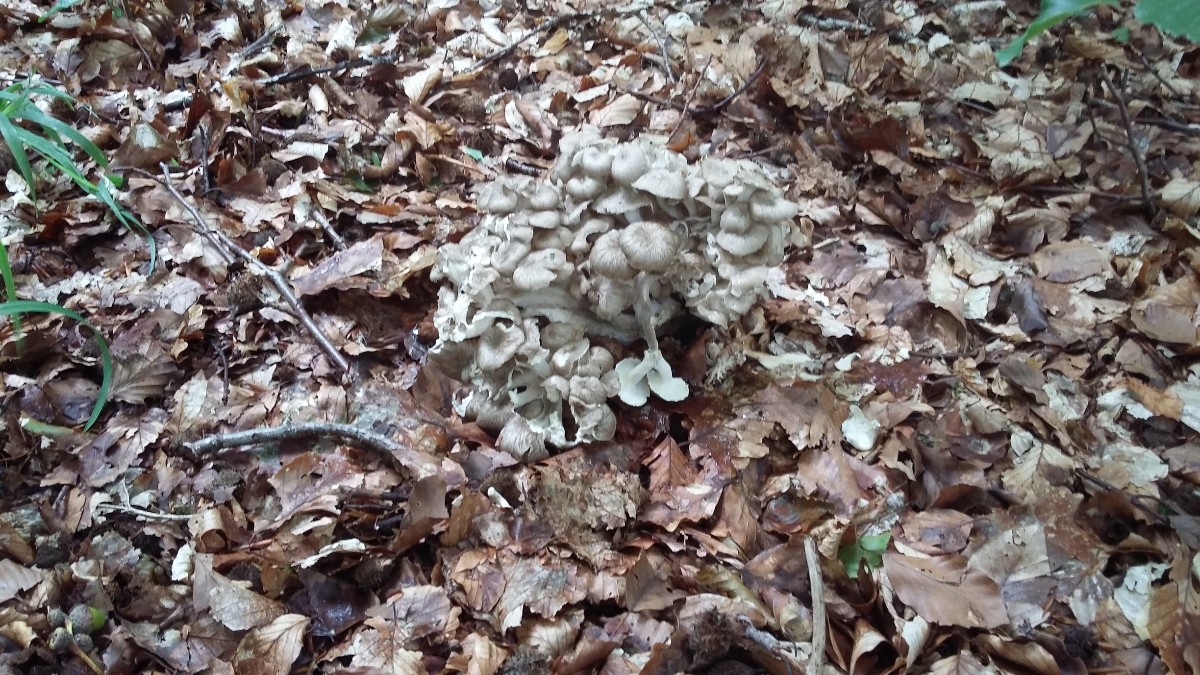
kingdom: Fungi
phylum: Basidiomycota
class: Agaricomycetes
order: Polyporales
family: Polyporaceae
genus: Polyporus
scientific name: Polyporus umbellatus
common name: skærmformet stilkporesvamp
